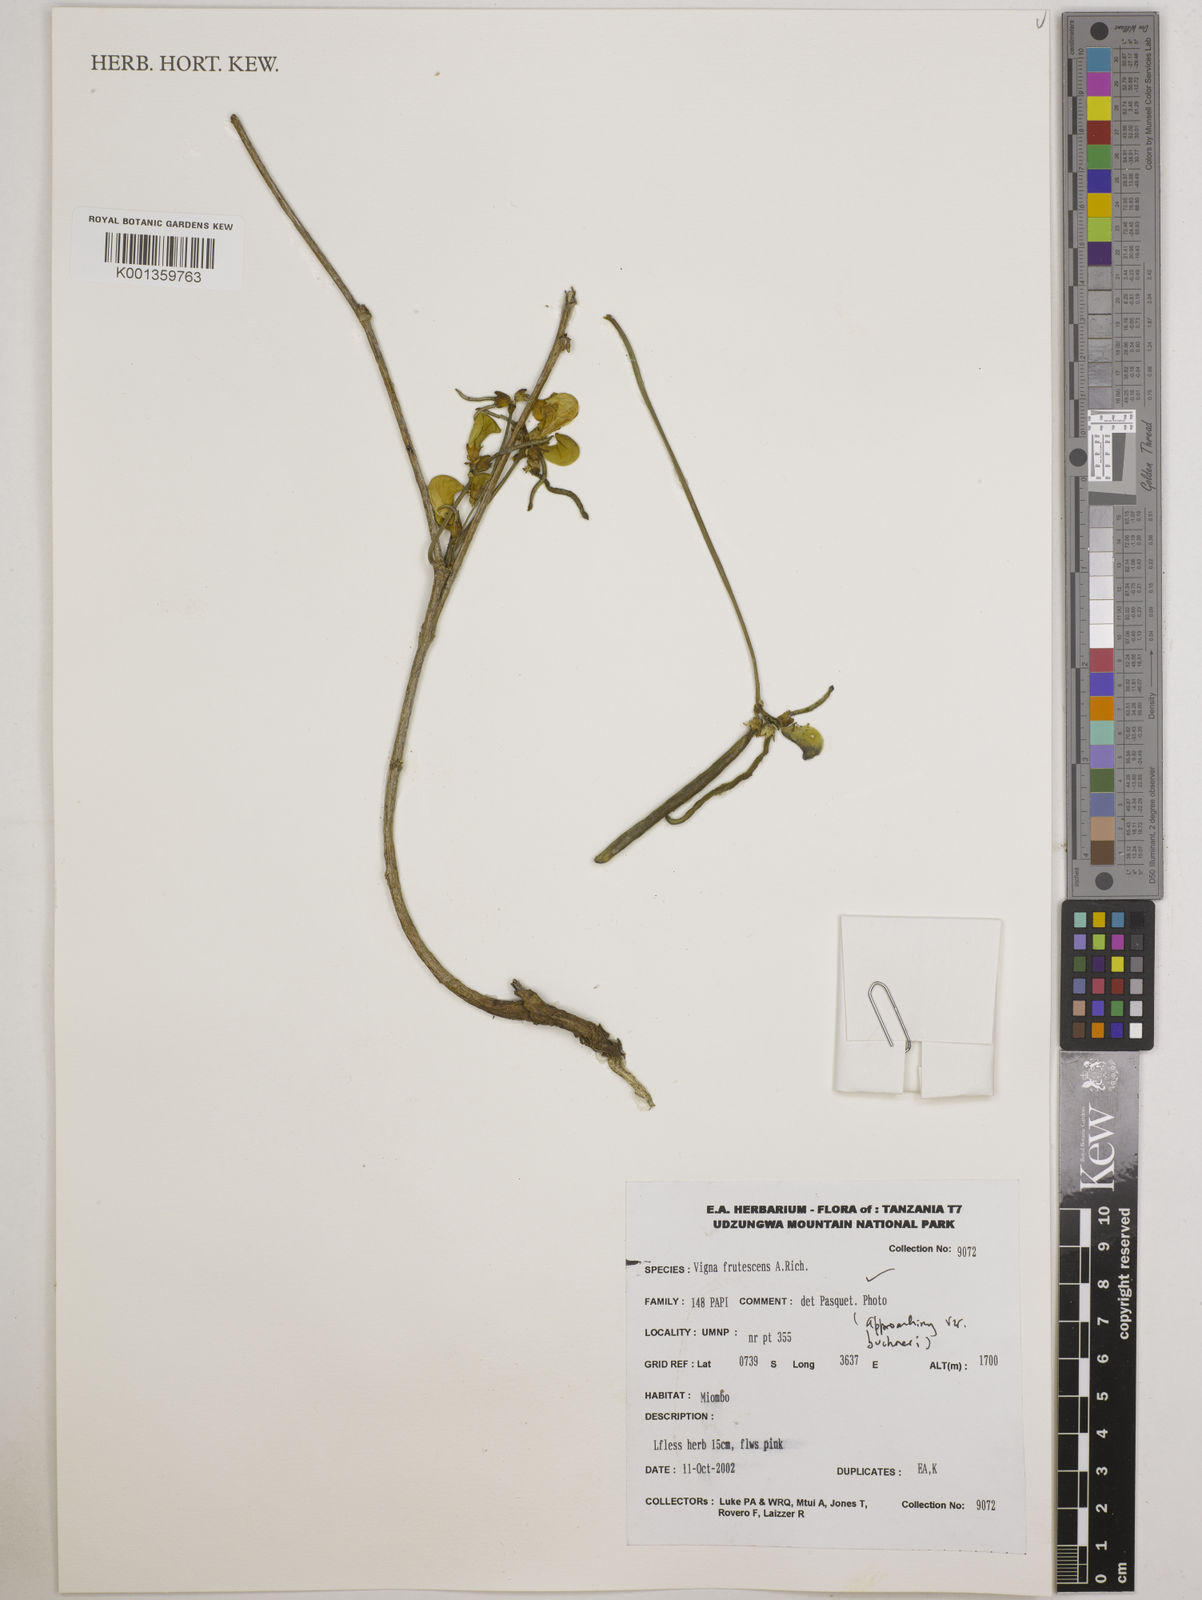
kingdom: Plantae
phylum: Tracheophyta
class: Magnoliopsida
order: Fabales
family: Fabaceae
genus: Vigna
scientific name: Vigna frutescens
